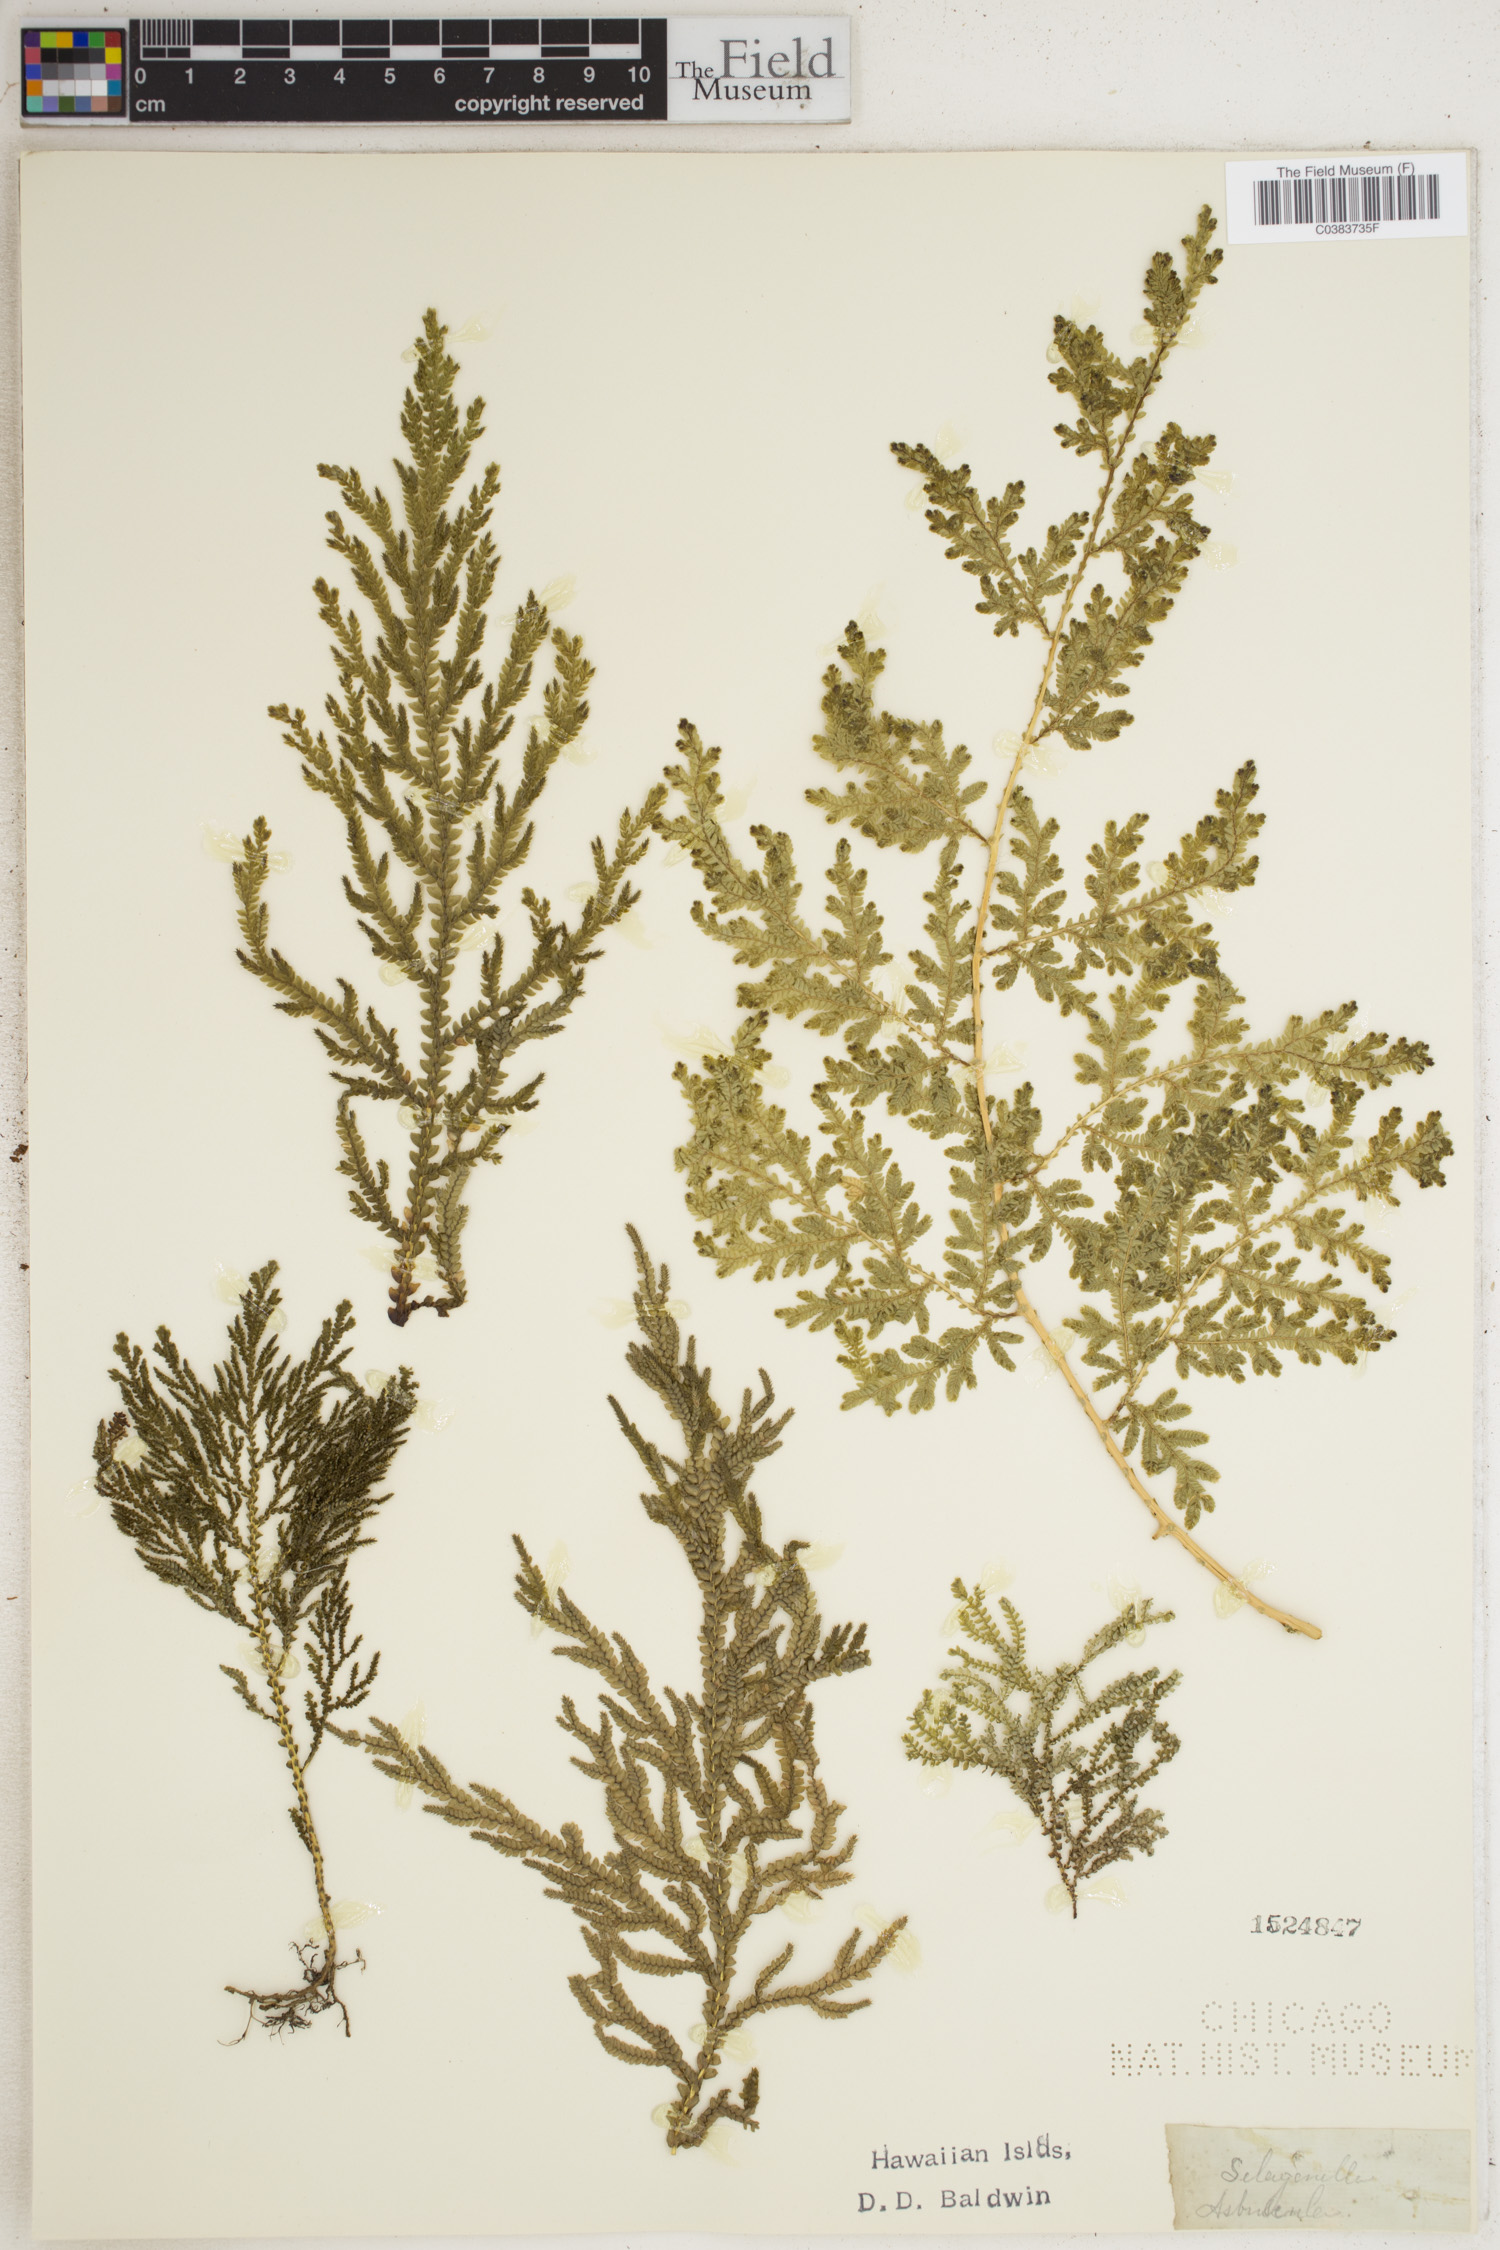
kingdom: Plantae
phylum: Tracheophyta
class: Lycopodiopsida
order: Selaginellales
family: Selaginellaceae
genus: Selaginella
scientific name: Selaginella arbuscula
